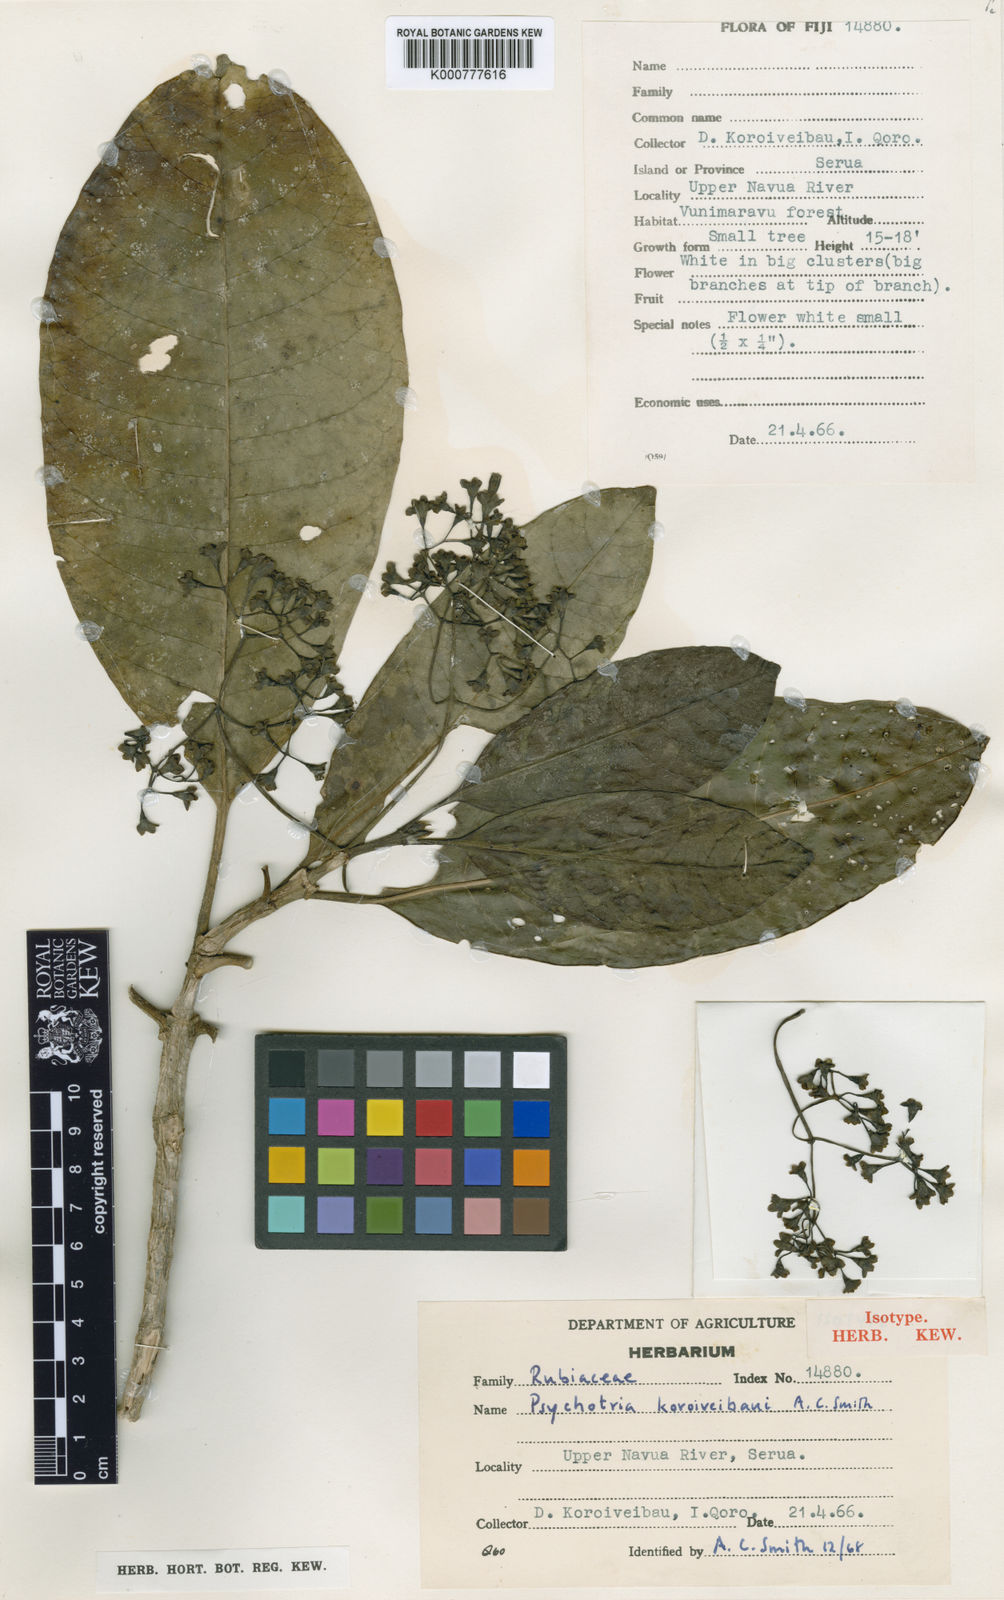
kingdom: Plantae
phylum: Tracheophyta
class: Magnoliopsida
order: Gentianales
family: Rubiaceae
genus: Psychotria
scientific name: Psychotria koroiveibaui
